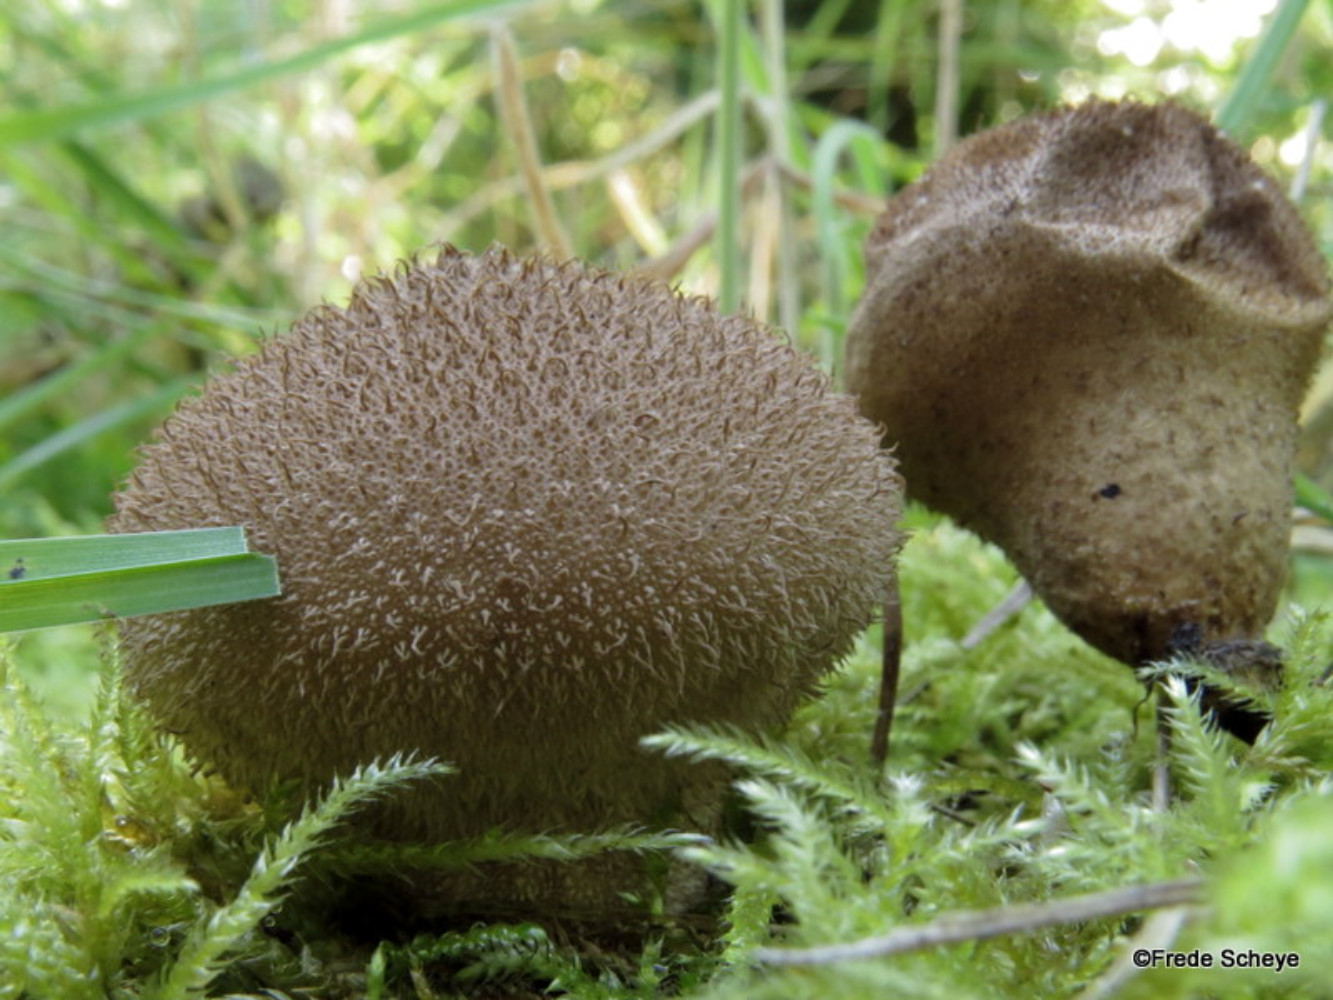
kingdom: Fungi
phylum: Basidiomycota
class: Agaricomycetes
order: Agaricales
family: Lycoperdaceae
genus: Lycoperdon
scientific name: Lycoperdon nigrescens
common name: sortagtig støvbold
